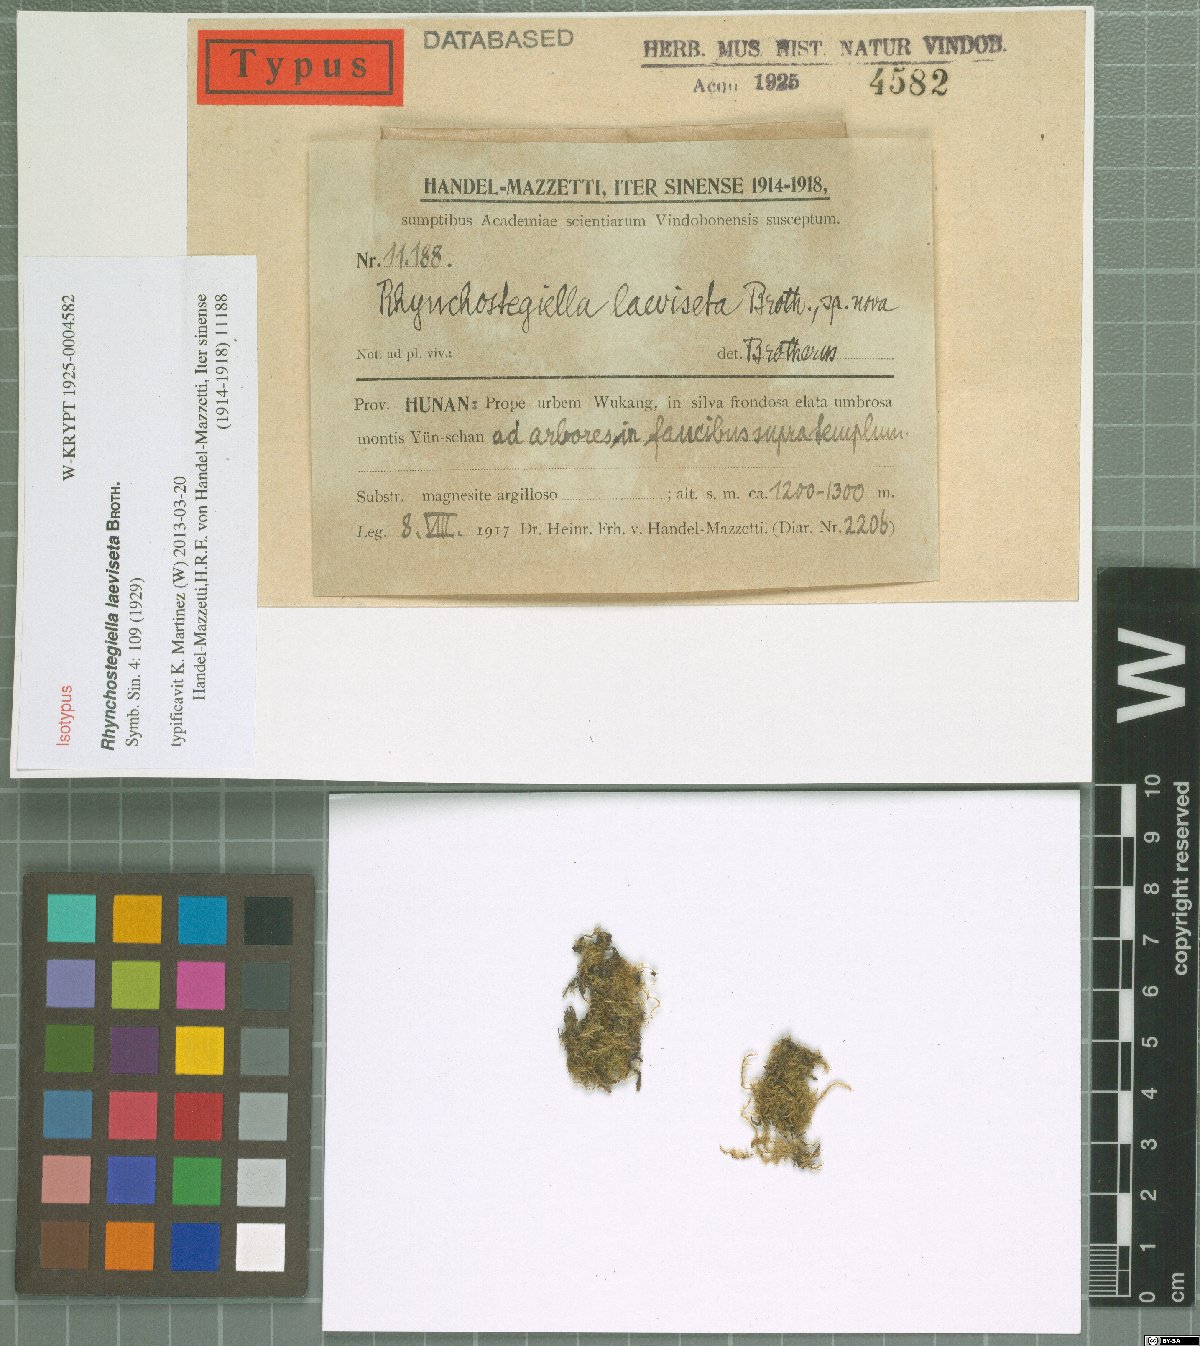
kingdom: Plantae
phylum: Bryophyta
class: Bryopsida
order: Hypnales
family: Brachytheciaceae
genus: Rhynchostegium
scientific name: Rhynchostegium psilopodium
